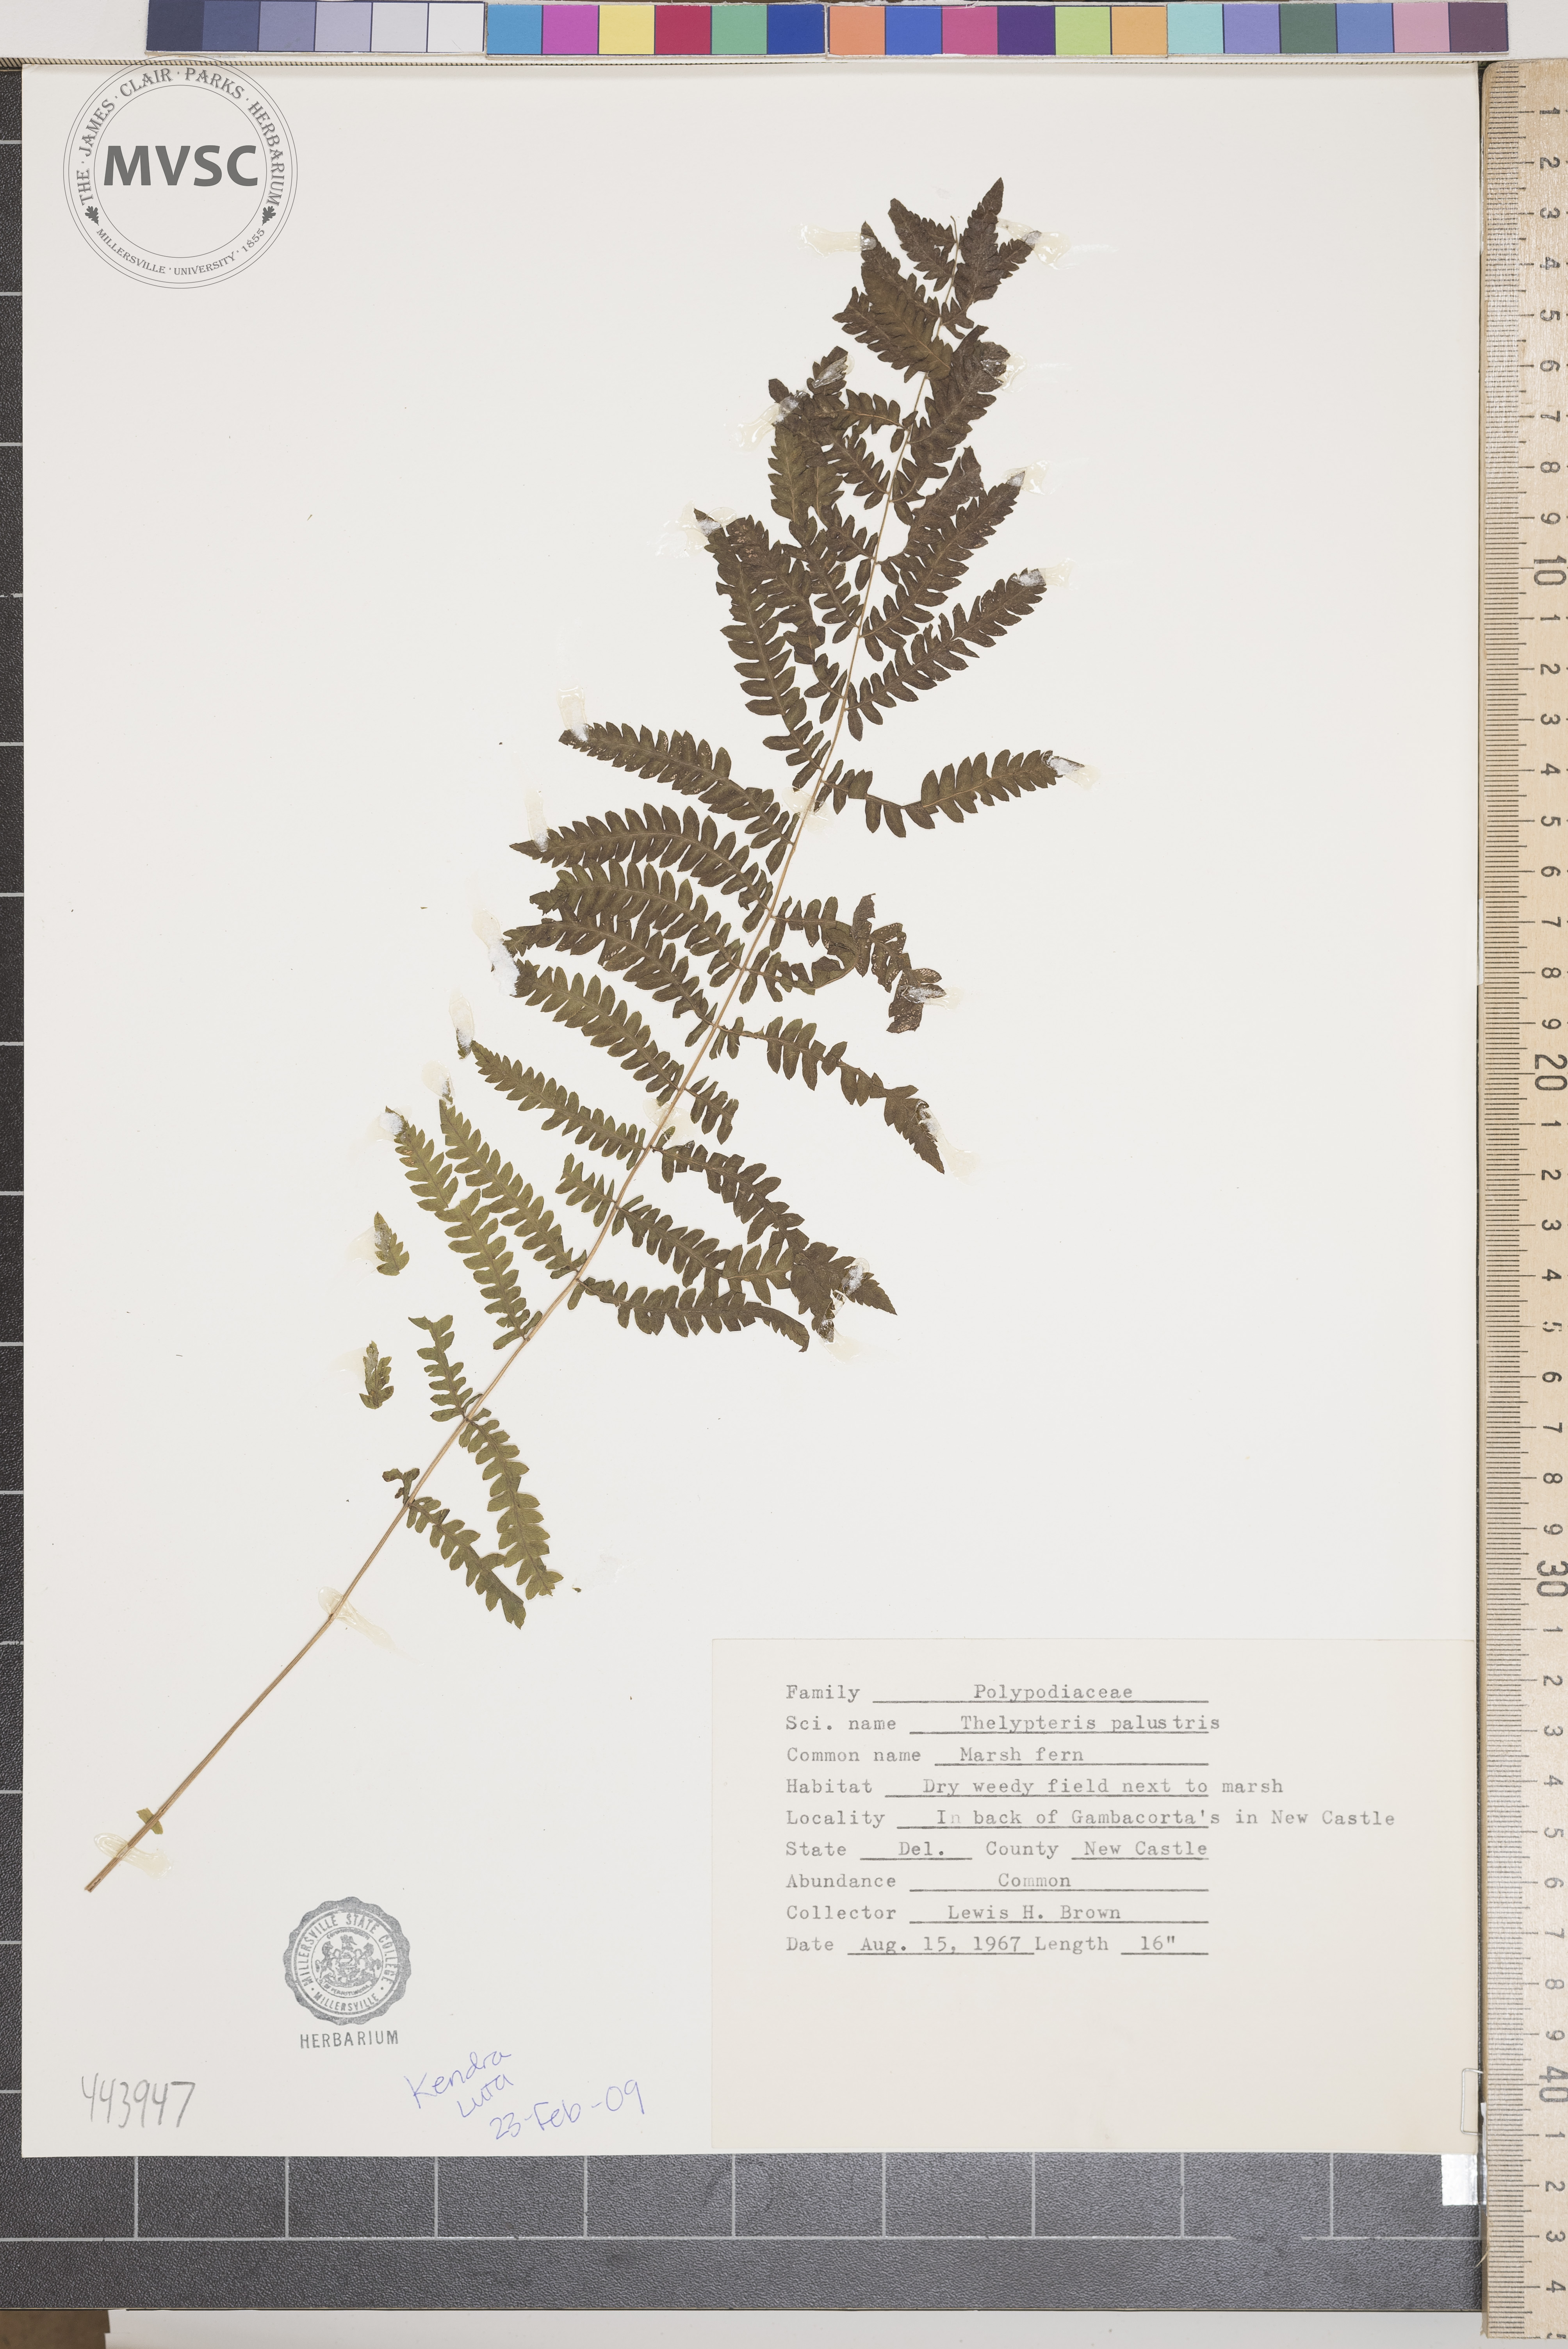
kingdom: Plantae
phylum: Tracheophyta
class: Polypodiopsida
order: Polypodiales
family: Thelypteridaceae
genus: Thelypteris
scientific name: Thelypteris palustris
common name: Marsh fern
